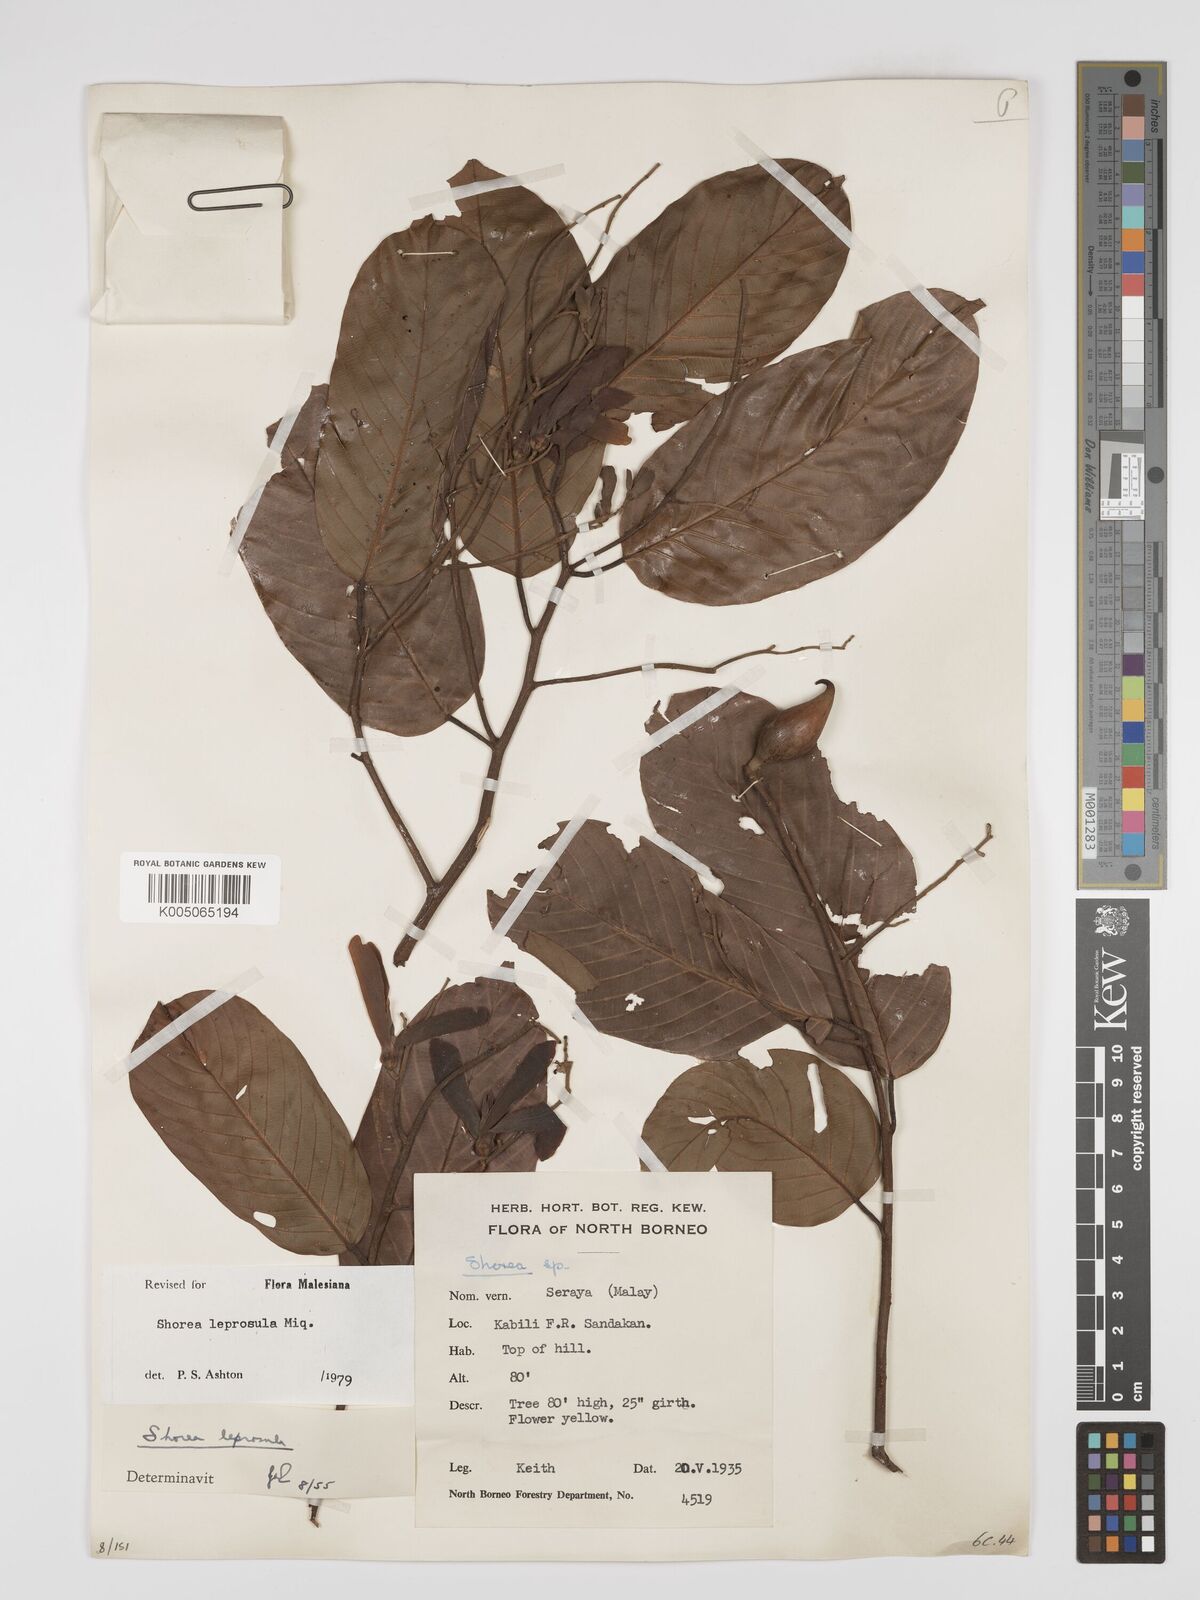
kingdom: Plantae
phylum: Tracheophyta
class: Magnoliopsida
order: Malvales
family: Dipterocarpaceae
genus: Shorea
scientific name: Shorea leprosula
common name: Light red meranti
